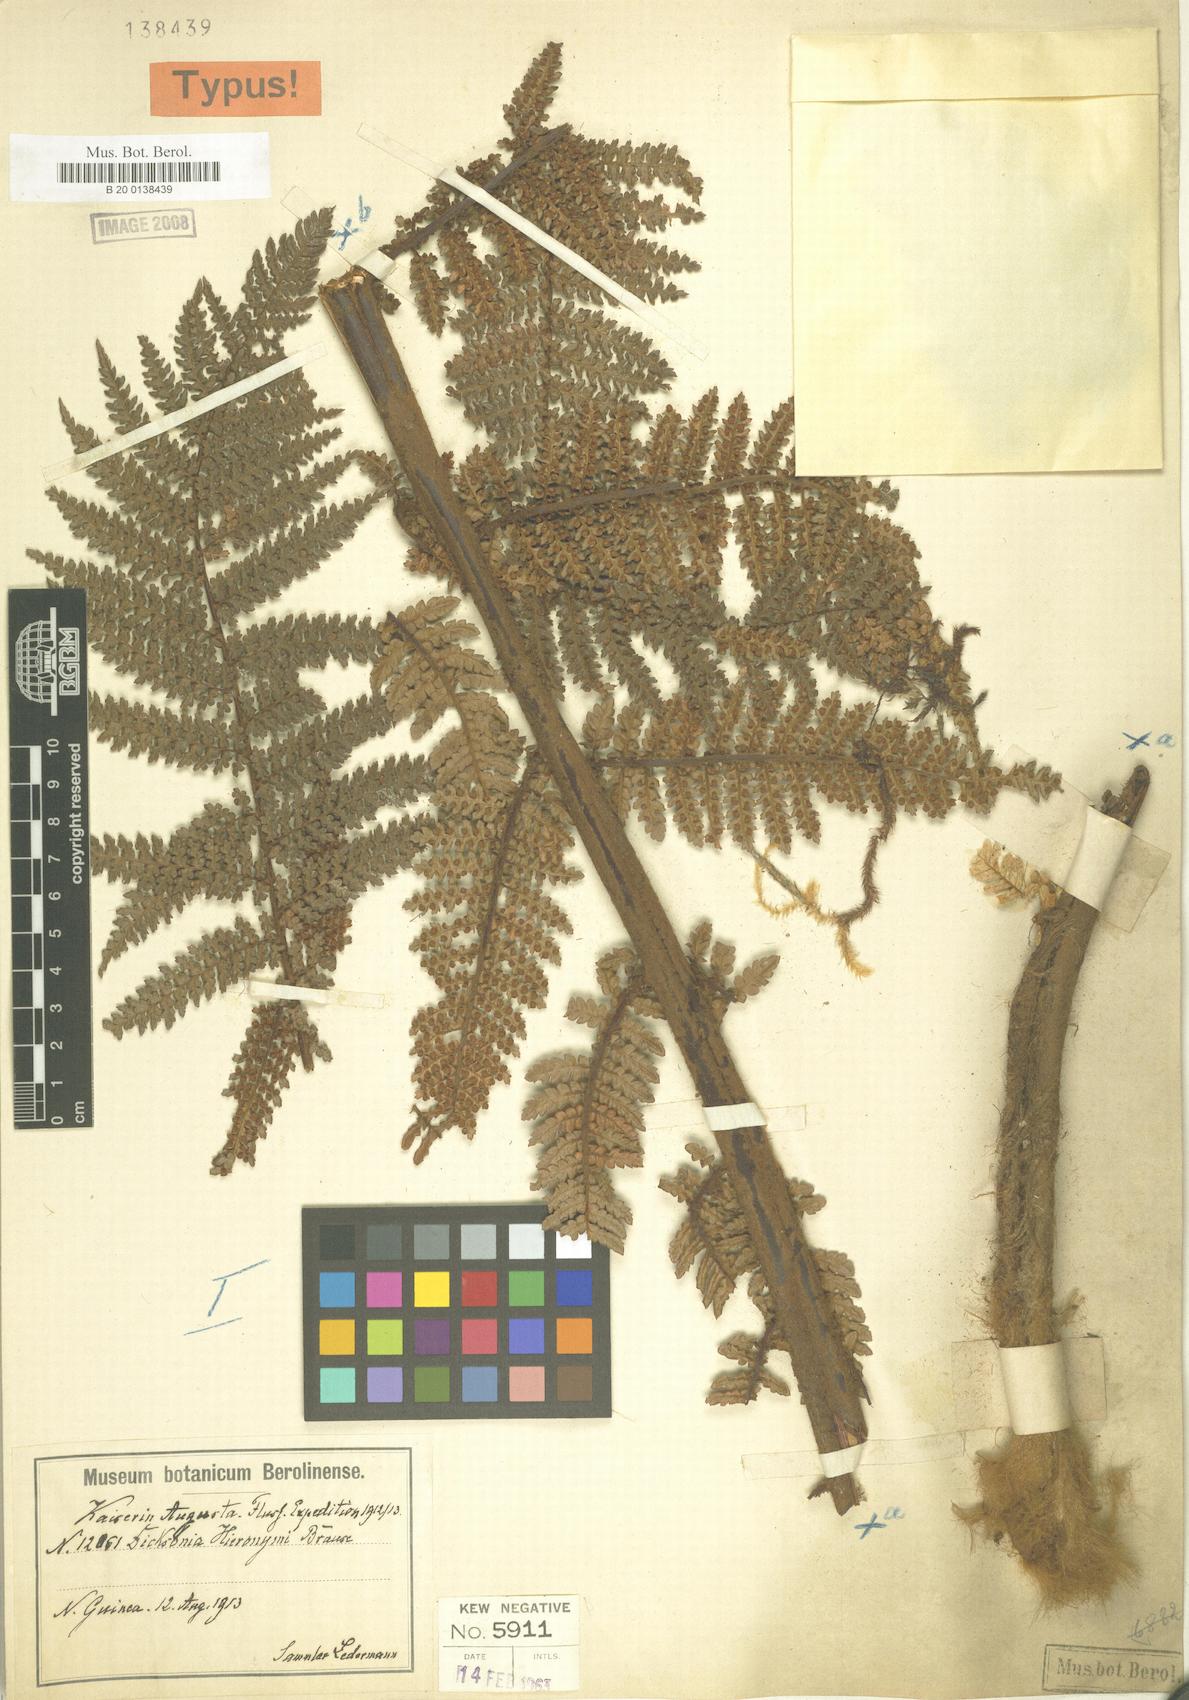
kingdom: Plantae
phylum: Tracheophyta
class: Polypodiopsida
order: Cyatheales
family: Dicksoniaceae
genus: Dicksonia
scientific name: Dicksonia hieronymi
